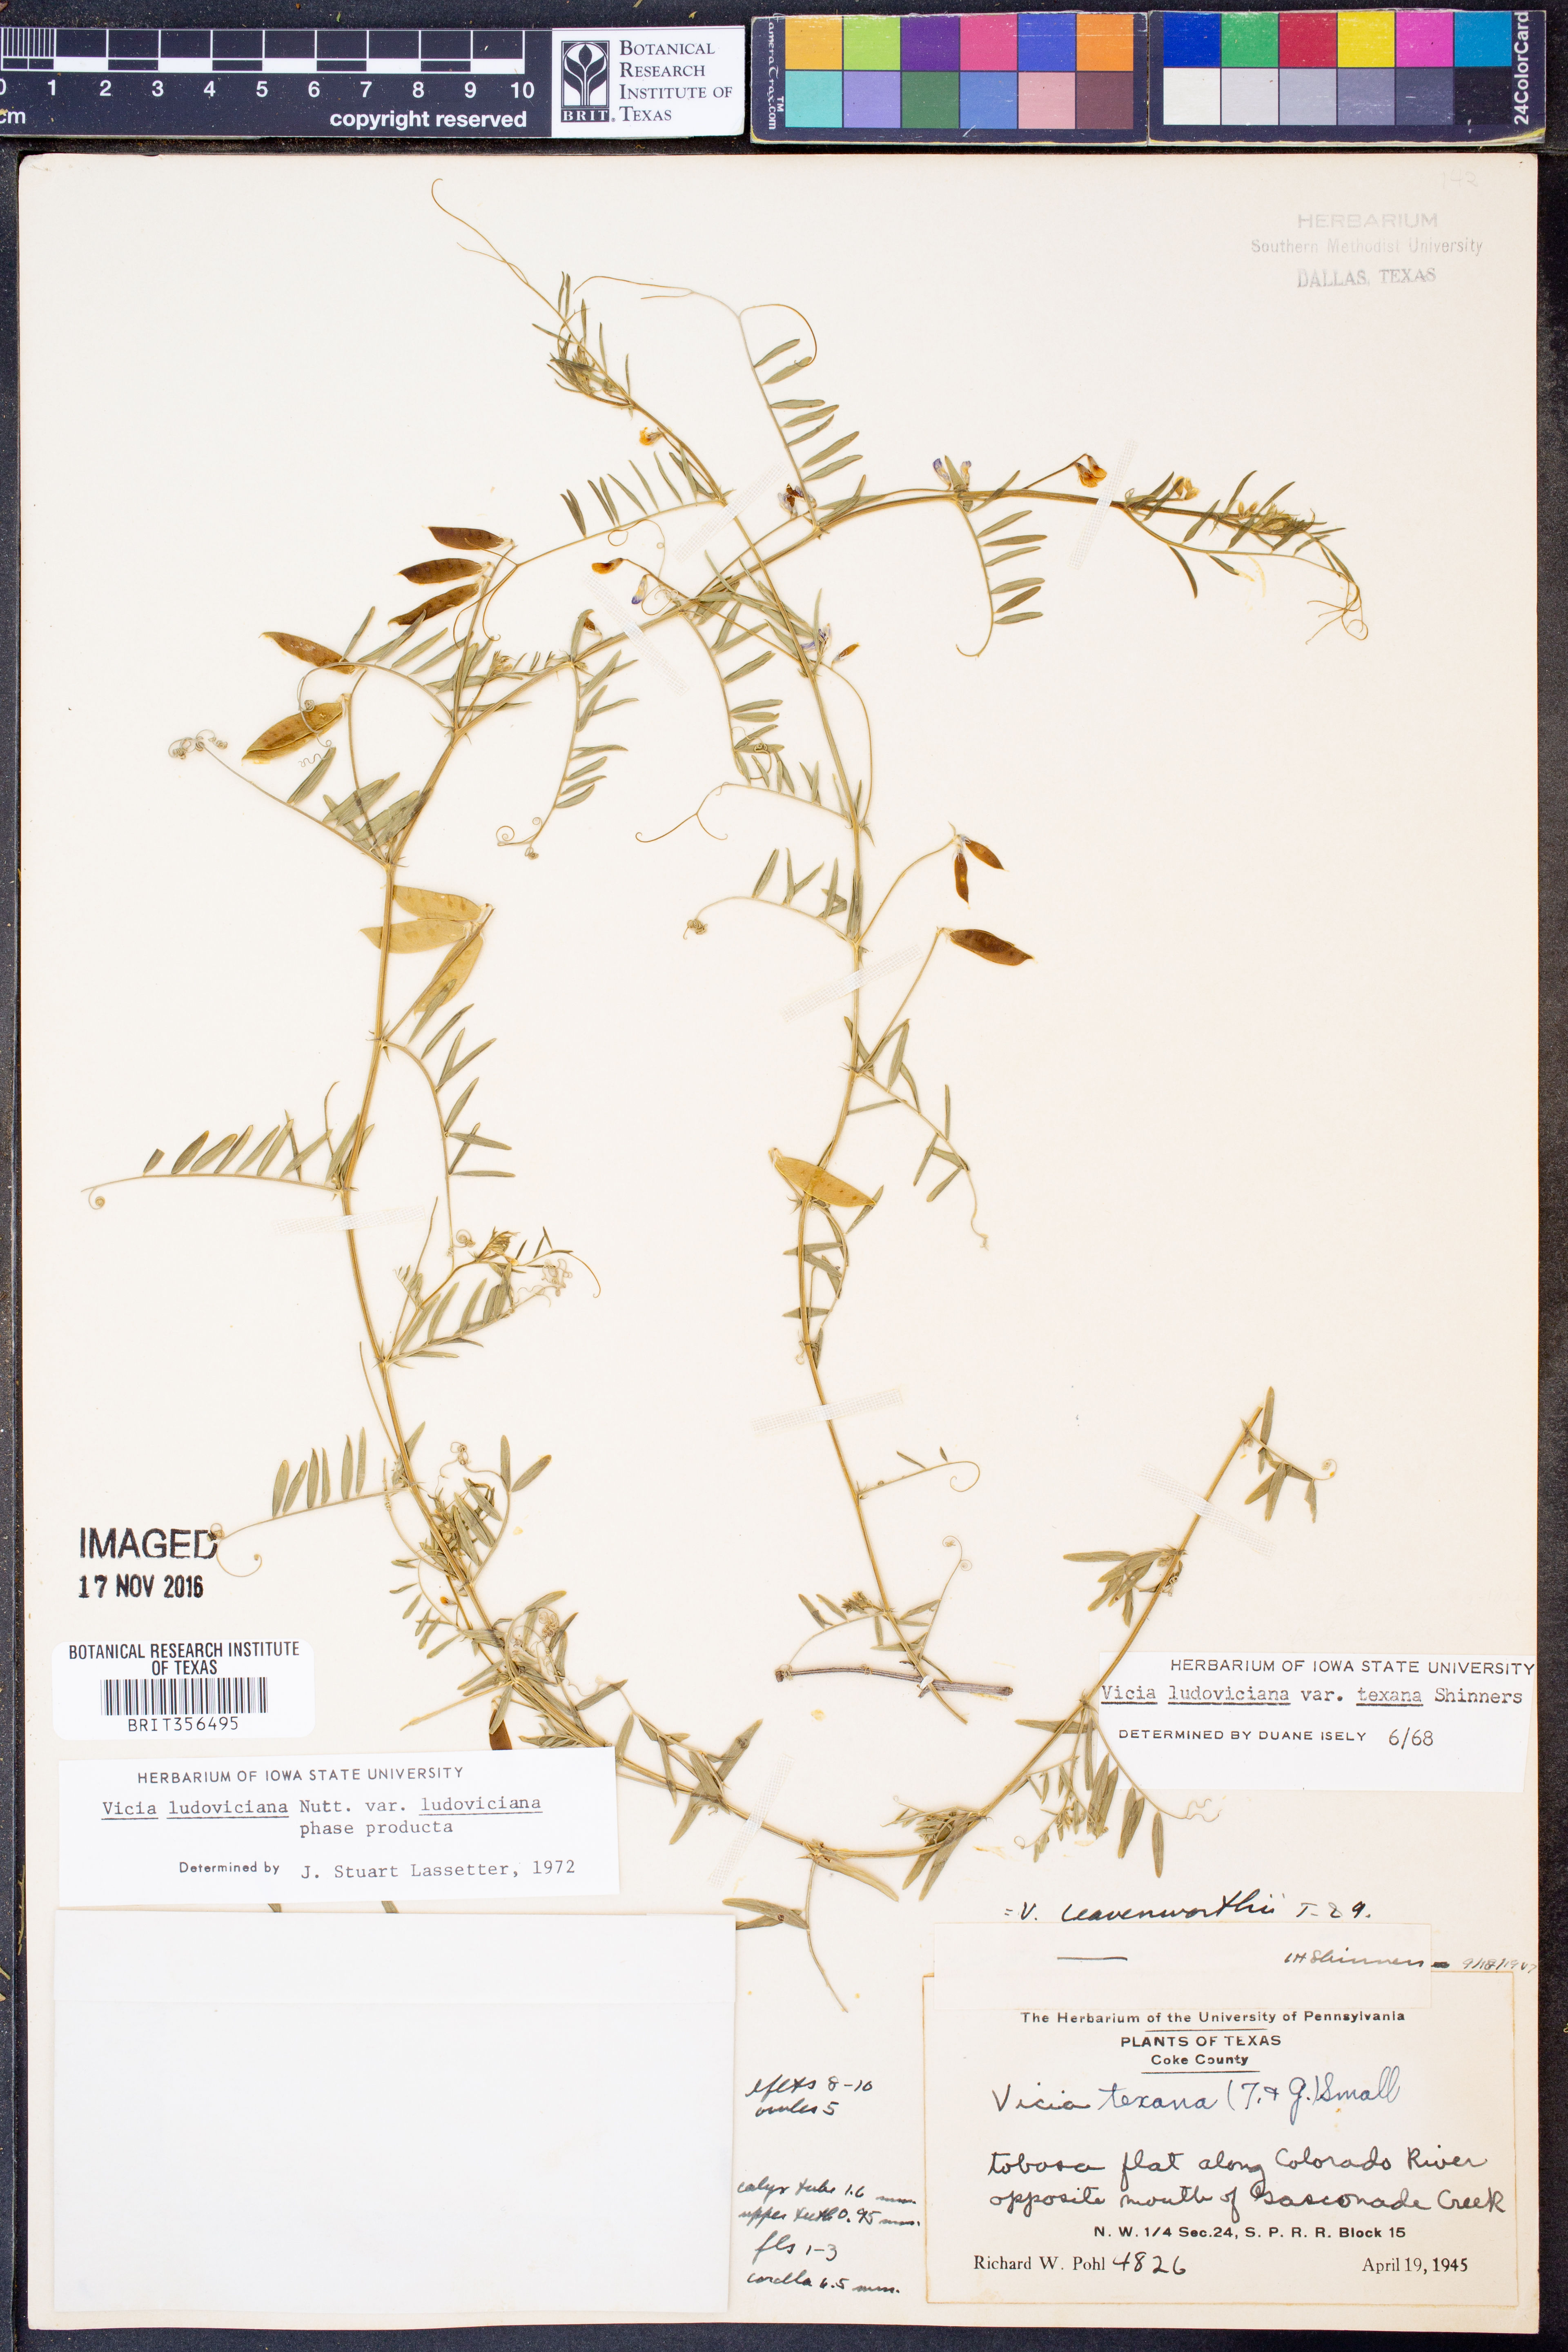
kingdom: Plantae
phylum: Tracheophyta
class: Magnoliopsida
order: Fabales
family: Fabaceae
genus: Vicia
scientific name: Vicia ludoviciana
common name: Louisiana vetch
